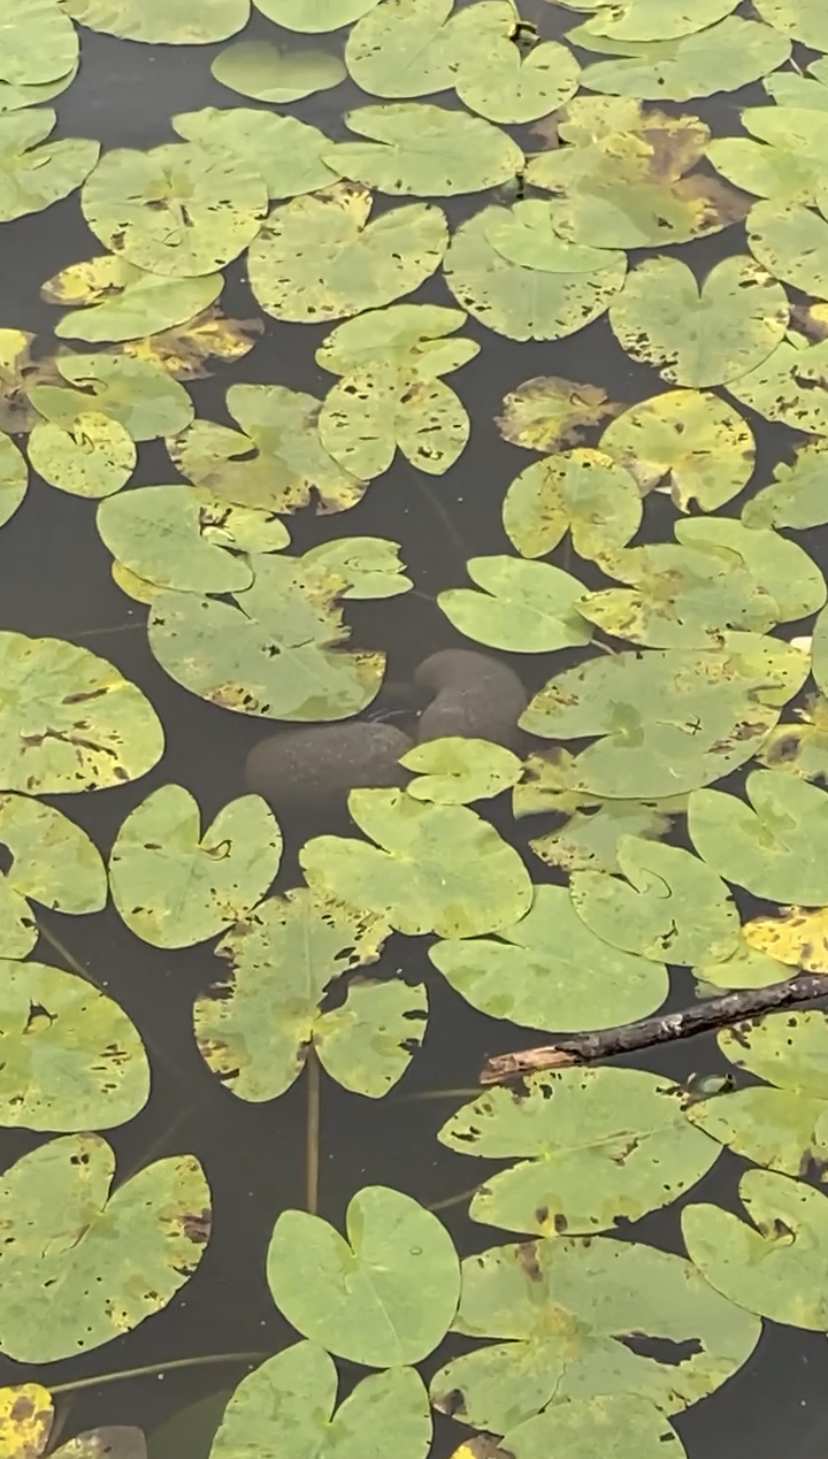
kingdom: Animalia
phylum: Bryozoa
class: Phylactolaemata
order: Plumatellida
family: Pectinatellidae
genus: Pectinatella
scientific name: Pectinatella magnifica
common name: Magnificent bryozoan
